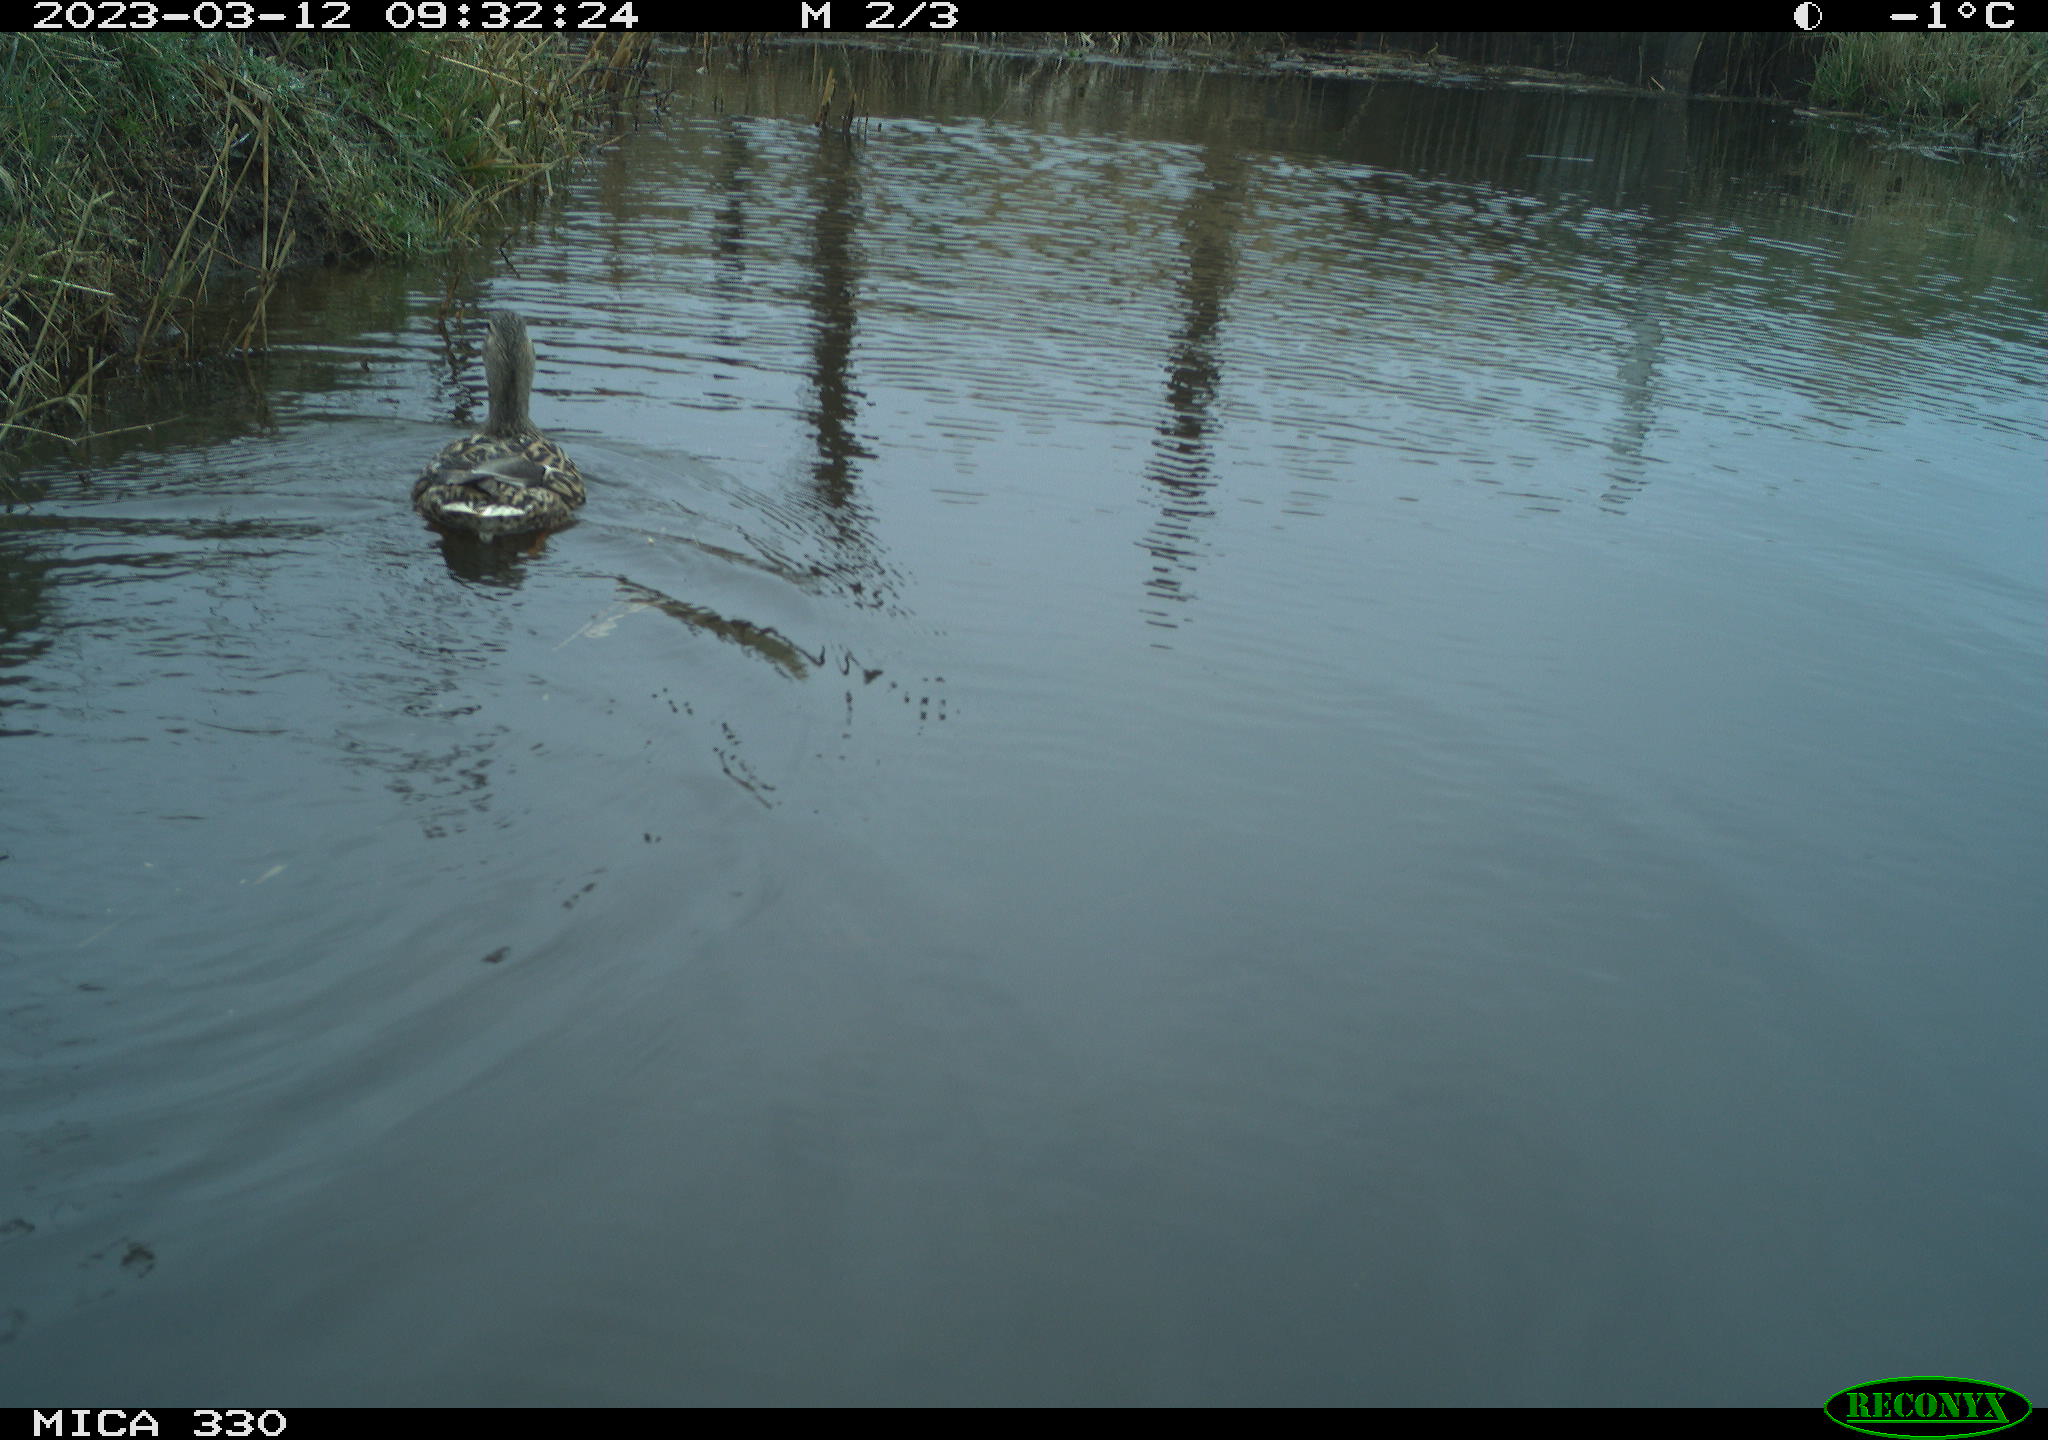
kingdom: Animalia
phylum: Chordata
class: Aves
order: Anseriformes
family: Anatidae
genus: Anas
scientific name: Anas
